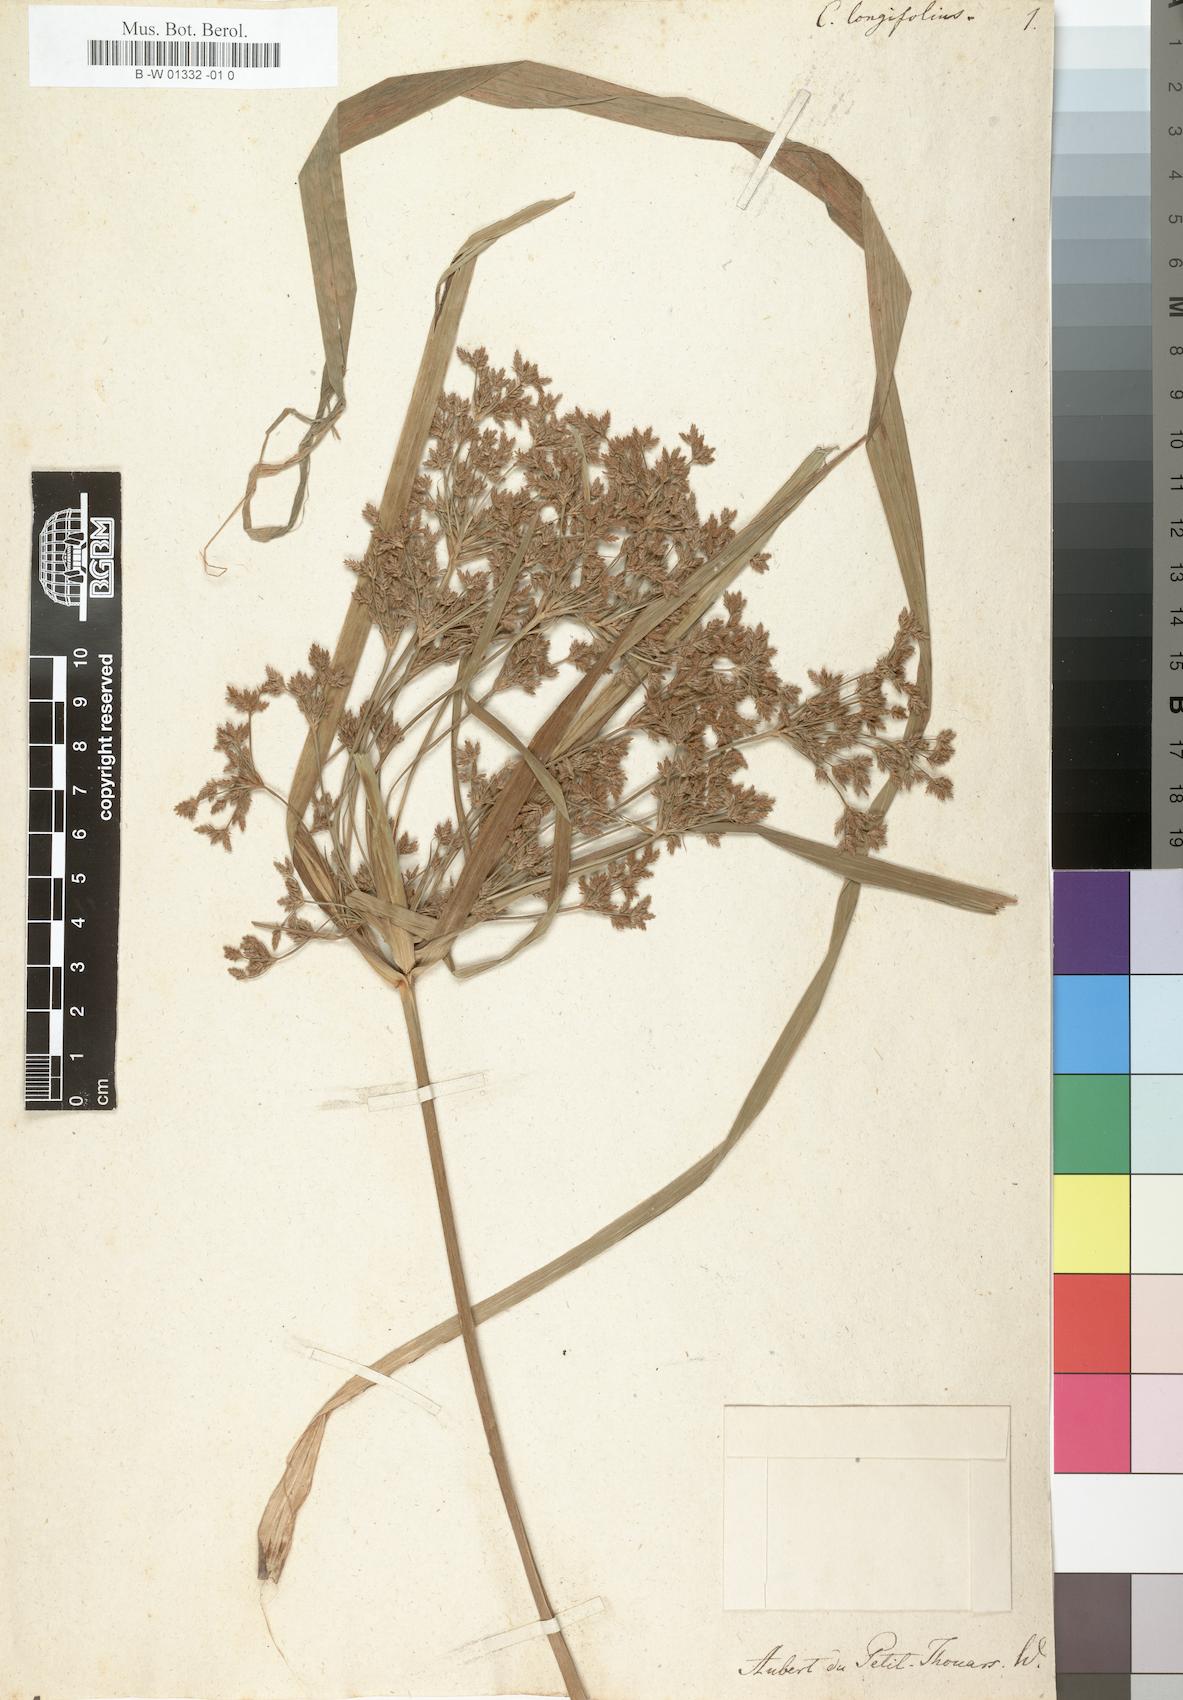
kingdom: Plantae
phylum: Tracheophyta
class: Liliopsida
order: Poales
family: Cyperaceae
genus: Cyperus
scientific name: Cyperus longifolius
